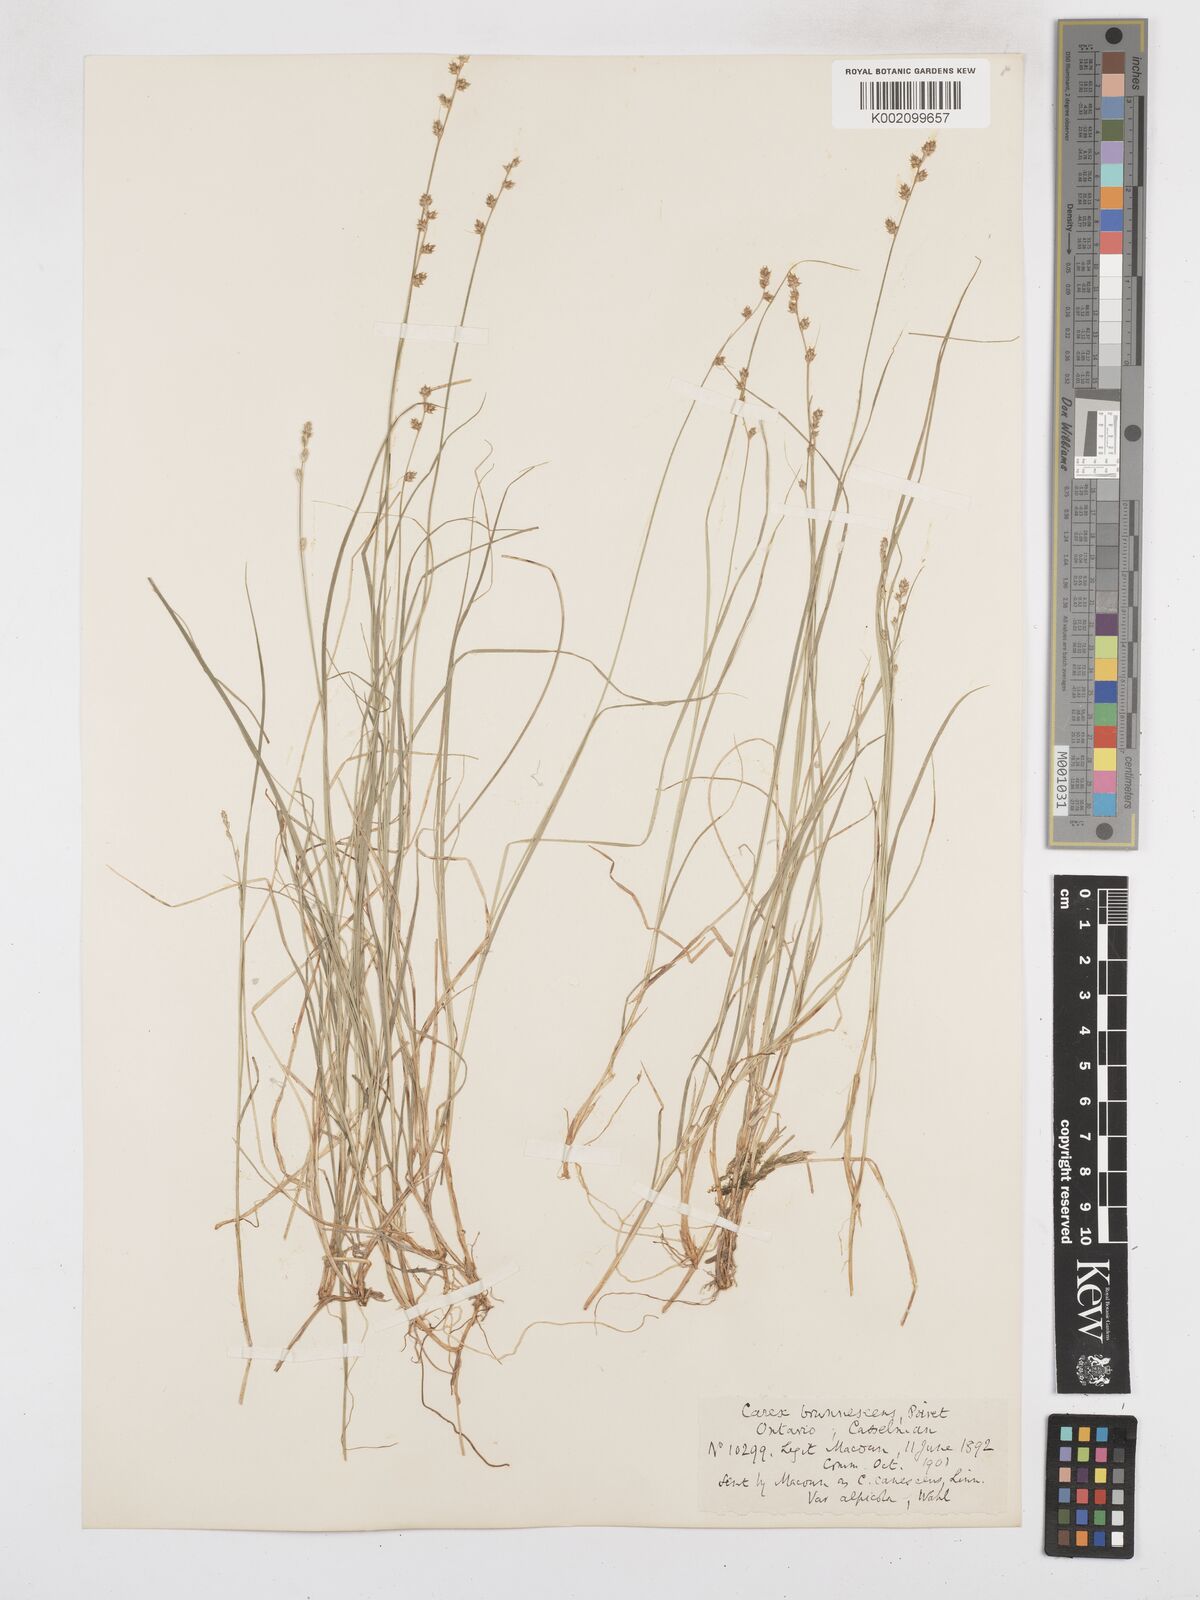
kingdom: Plantae
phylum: Tracheophyta
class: Liliopsida
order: Poales
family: Cyperaceae
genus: Carex
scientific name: Carex brunnescens
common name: Brown sedge
